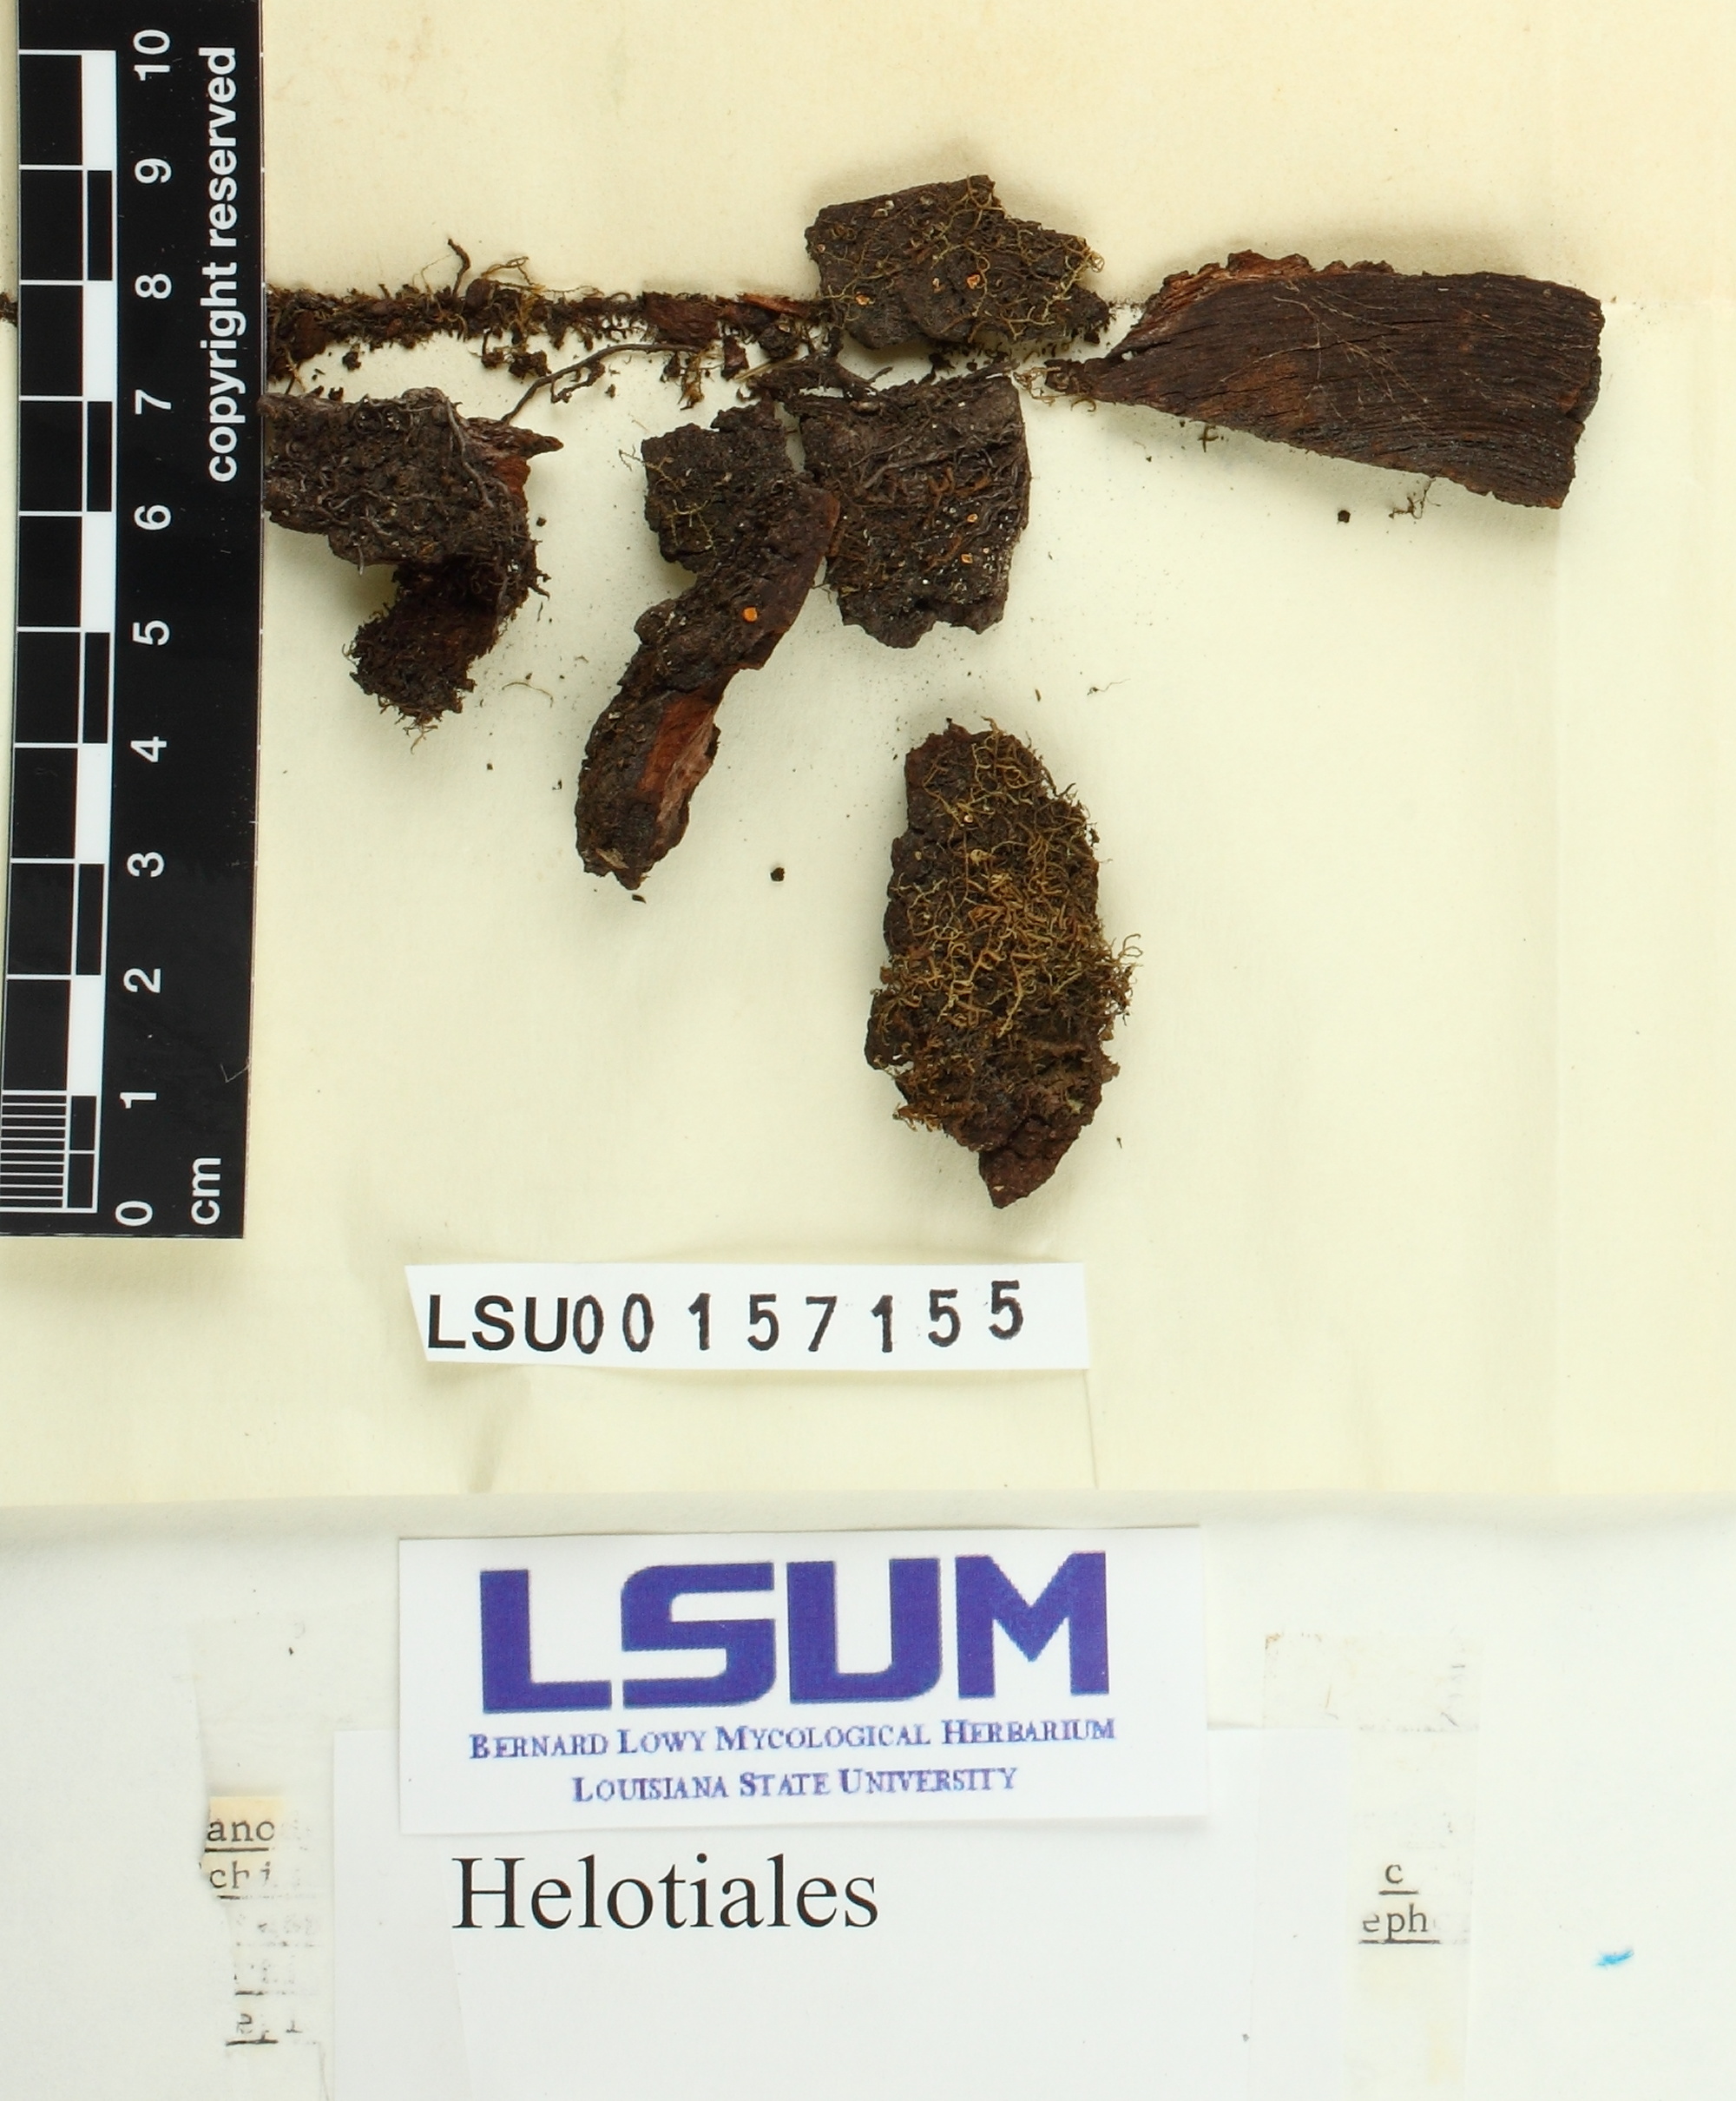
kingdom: Fungi
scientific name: Fungi
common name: Fungi
